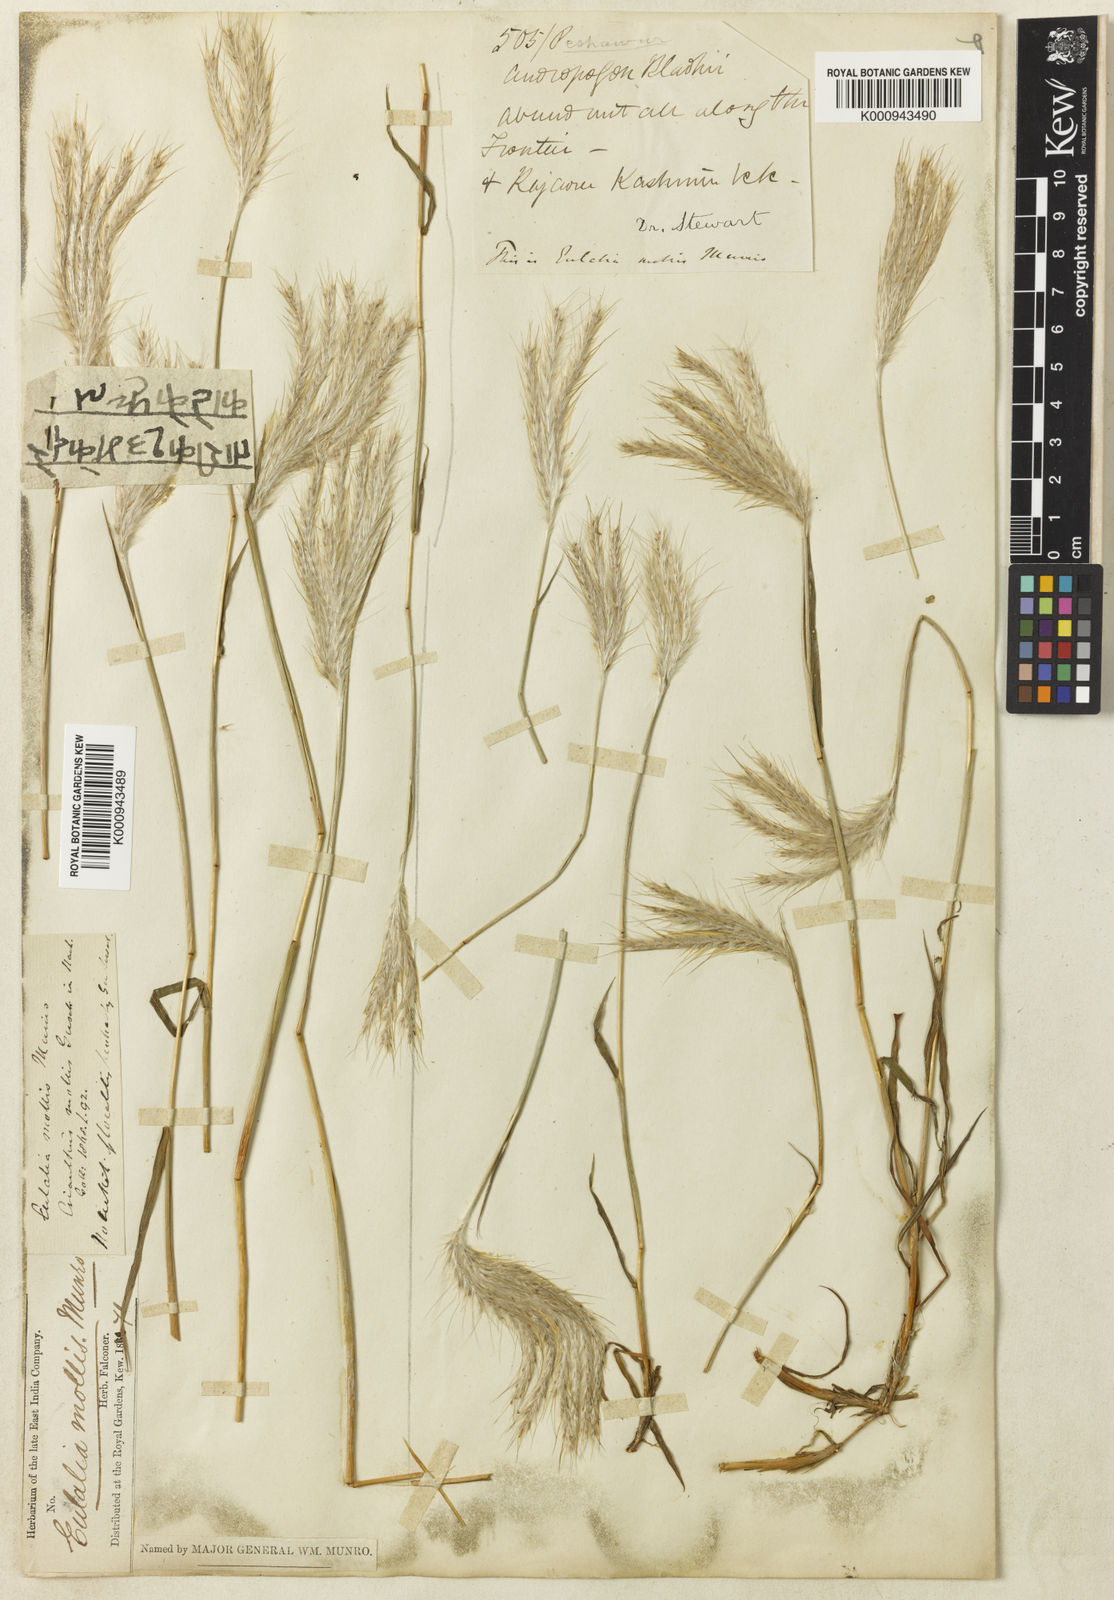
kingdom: Plantae
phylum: Tracheophyta
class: Liliopsida
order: Poales
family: Poaceae
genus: Eulalia
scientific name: Eulalia mollis
